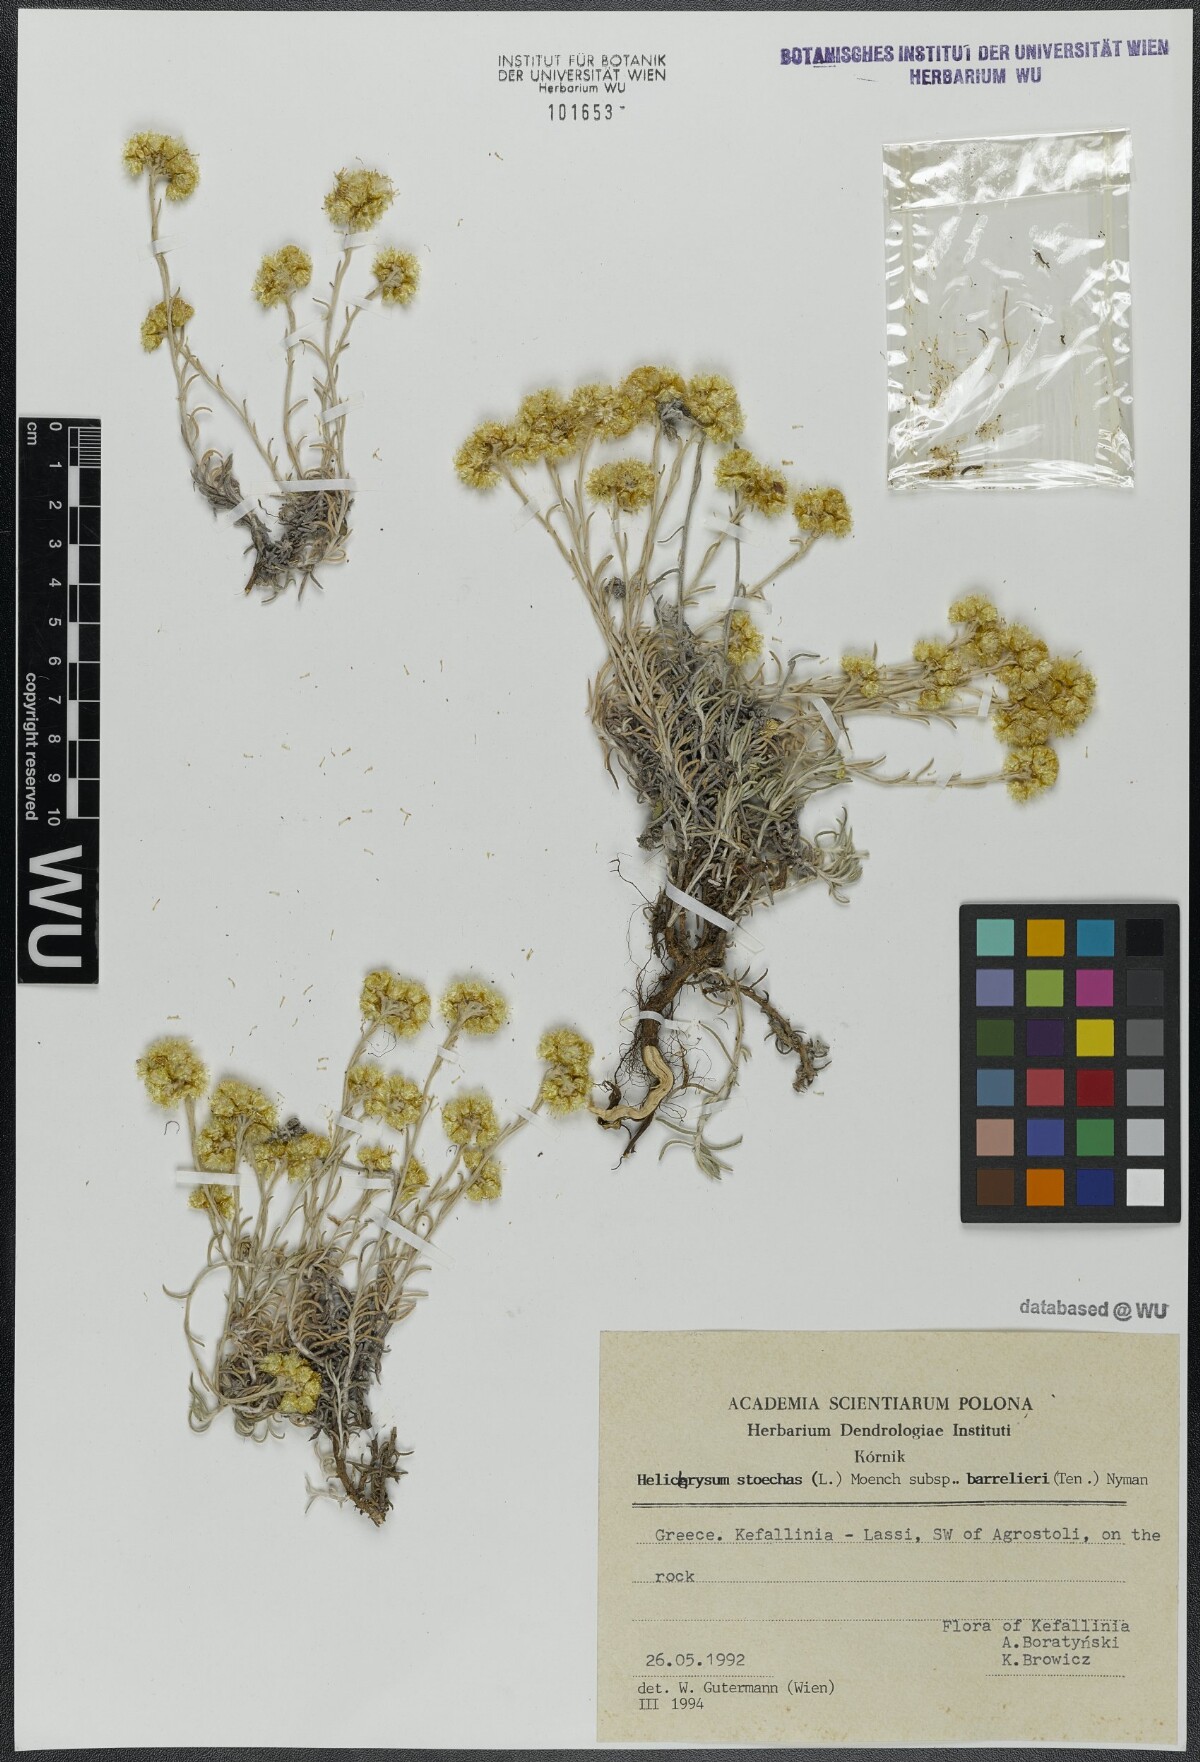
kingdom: Plantae
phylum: Tracheophyta
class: Magnoliopsida
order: Asterales
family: Asteraceae
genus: Helichrysum
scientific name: Helichrysum stoechas
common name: Goldilocks
